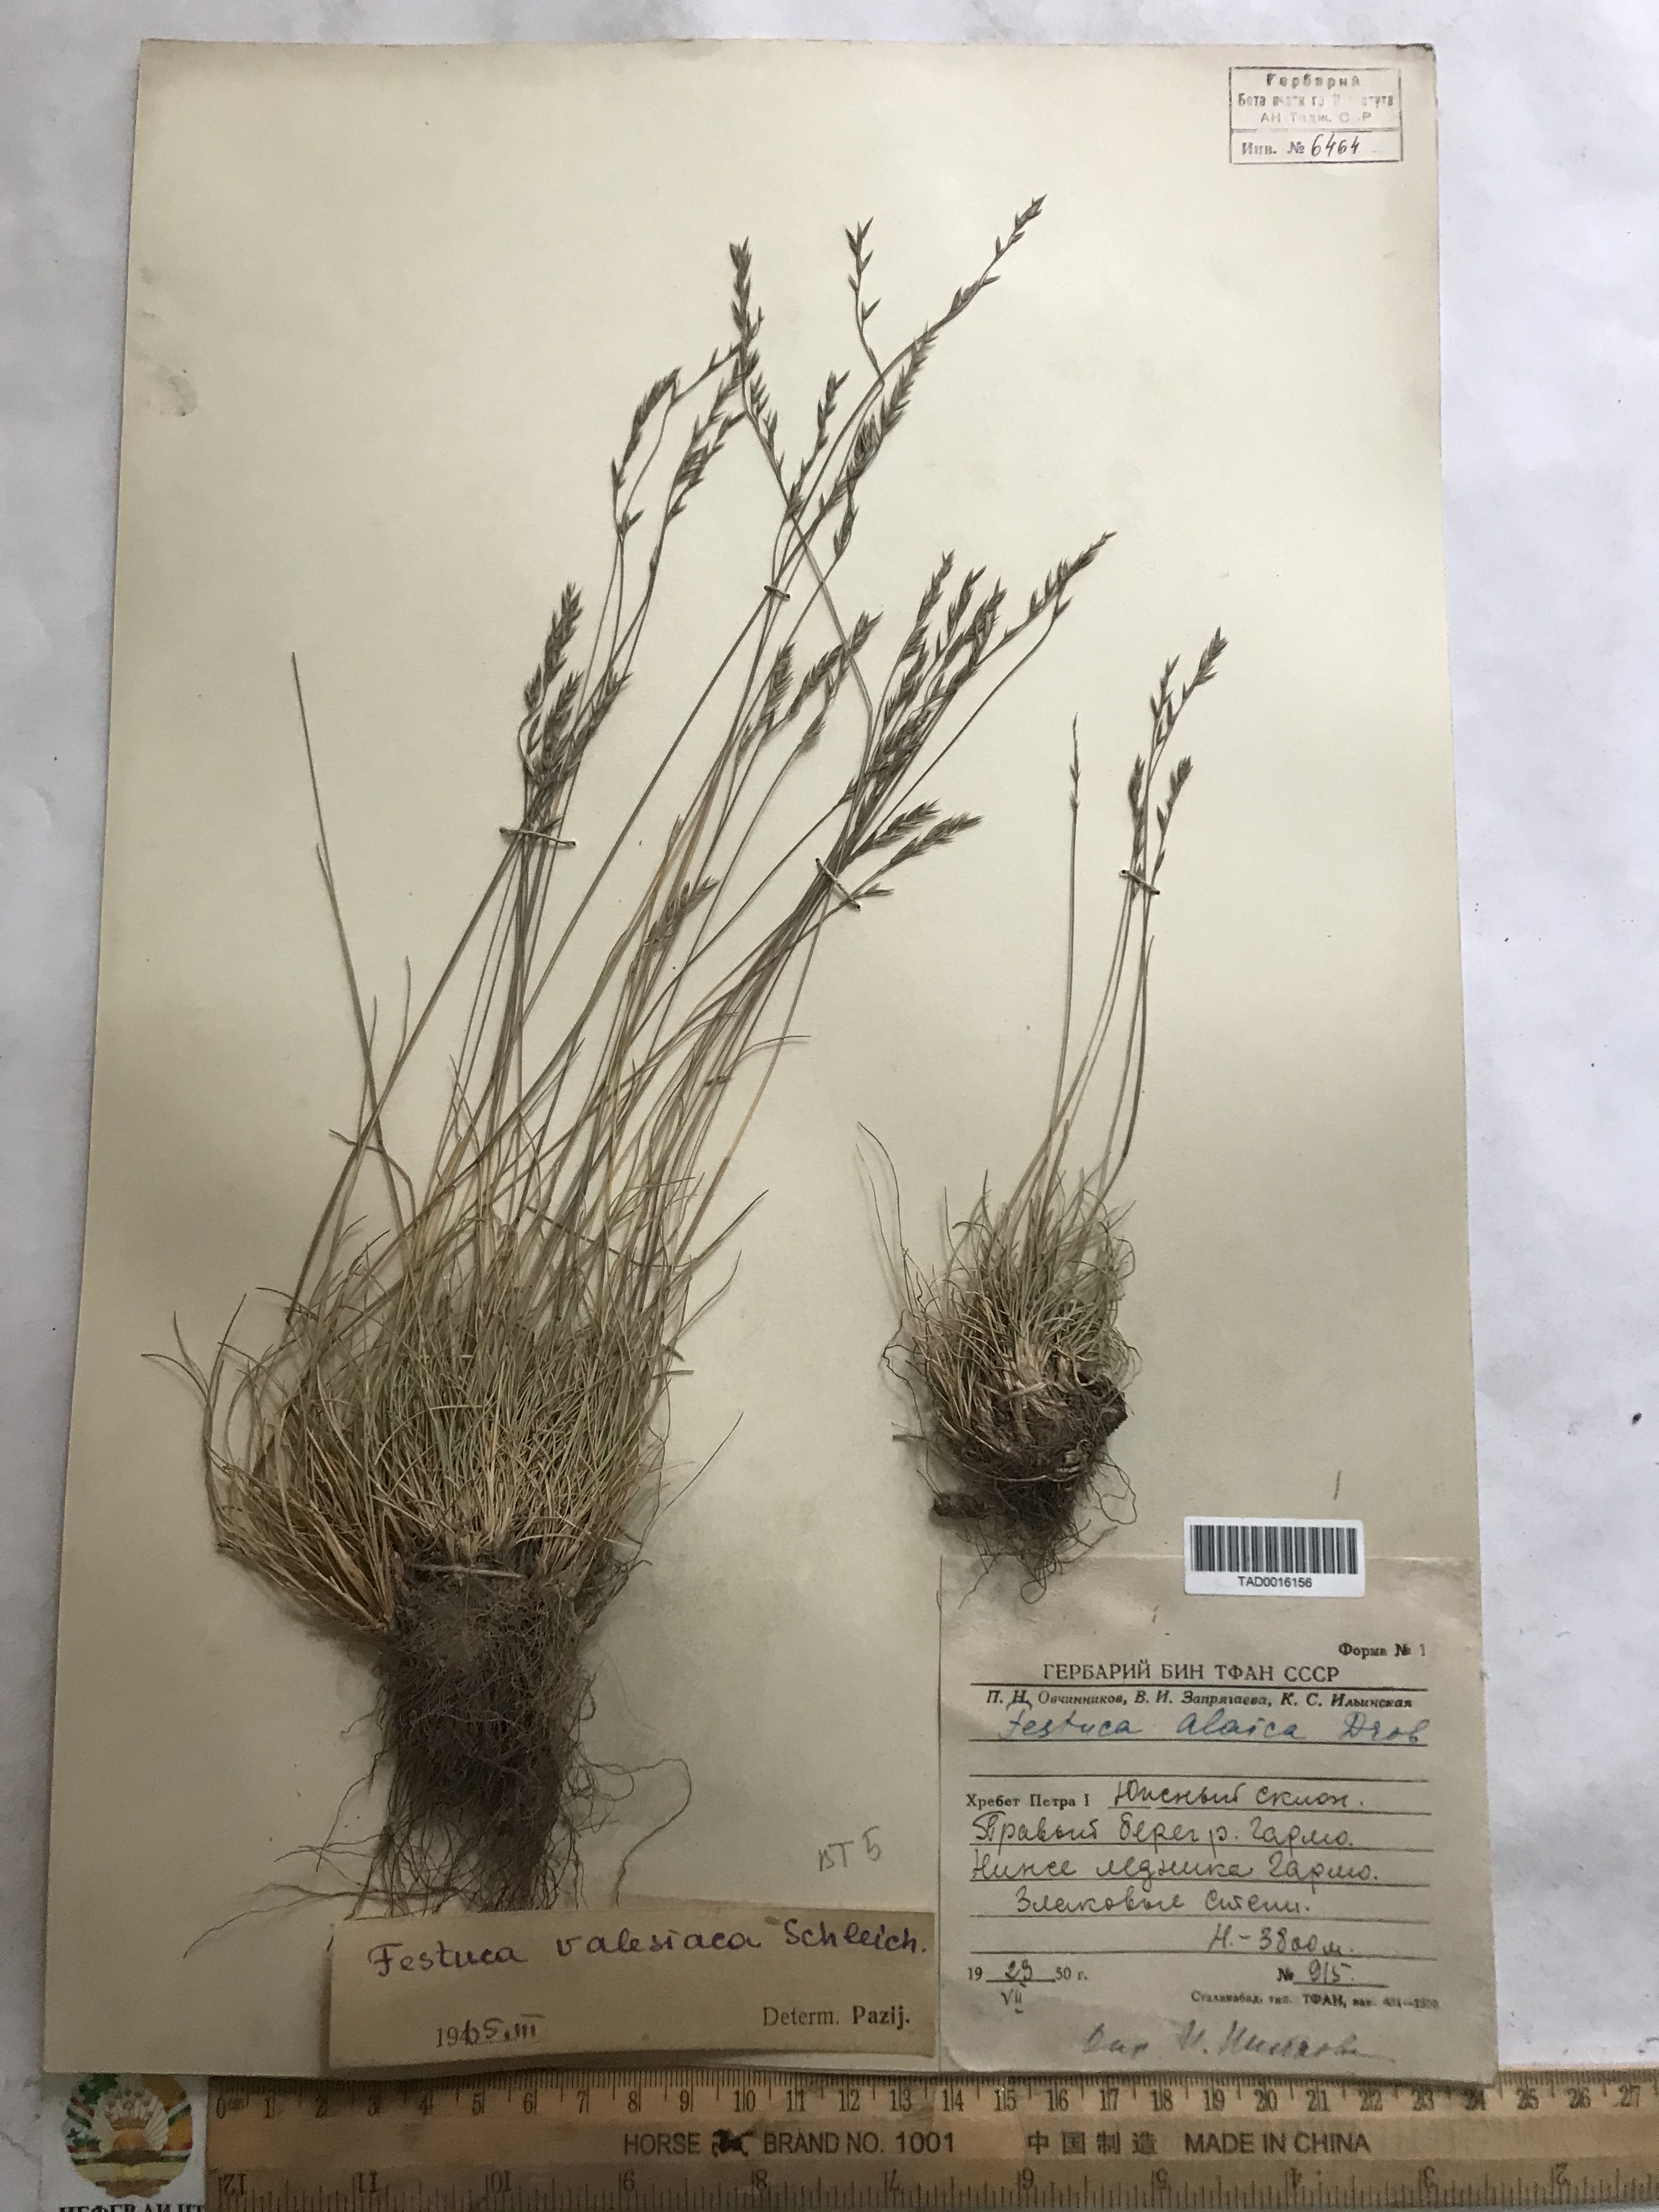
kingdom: Plantae
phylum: Tracheophyta
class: Liliopsida
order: Poales
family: Poaceae
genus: Festuca
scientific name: Festuca valesiaca
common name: Volga fescue
